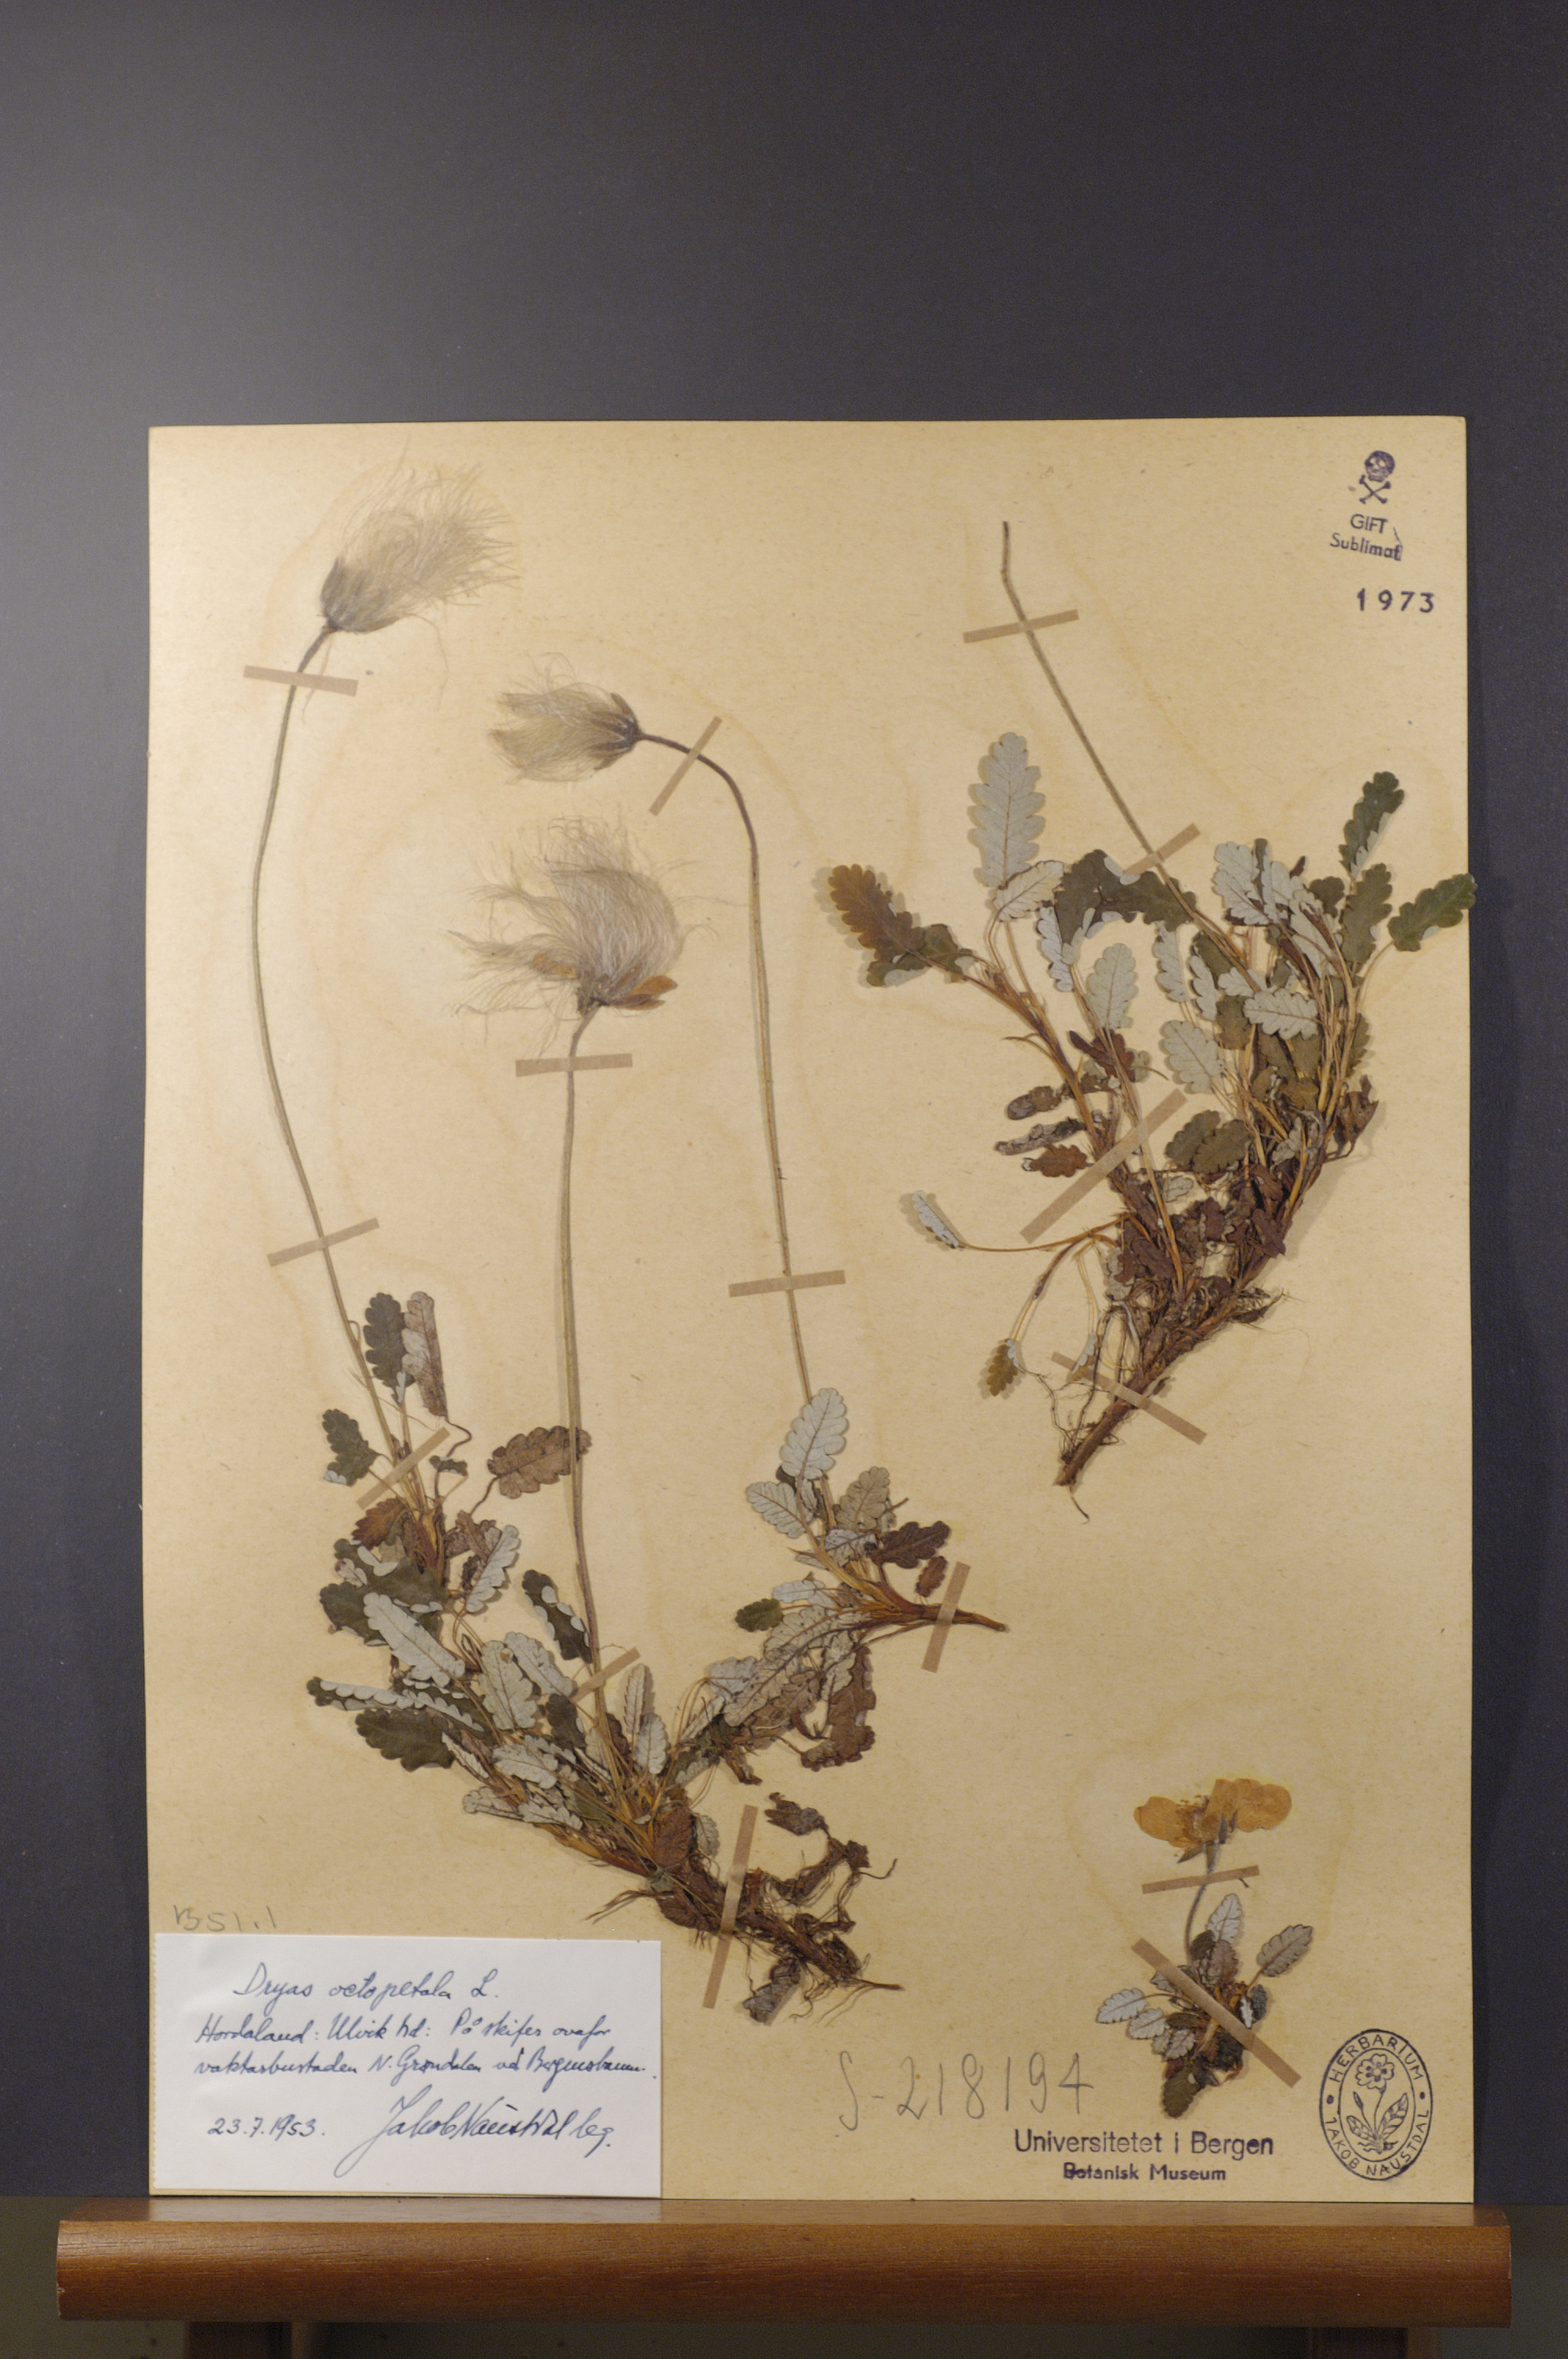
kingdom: Plantae
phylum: Tracheophyta
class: Magnoliopsida
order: Rosales
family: Rosaceae
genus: Dryas
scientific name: Dryas octopetala
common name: Eight-petal mountain-avens
